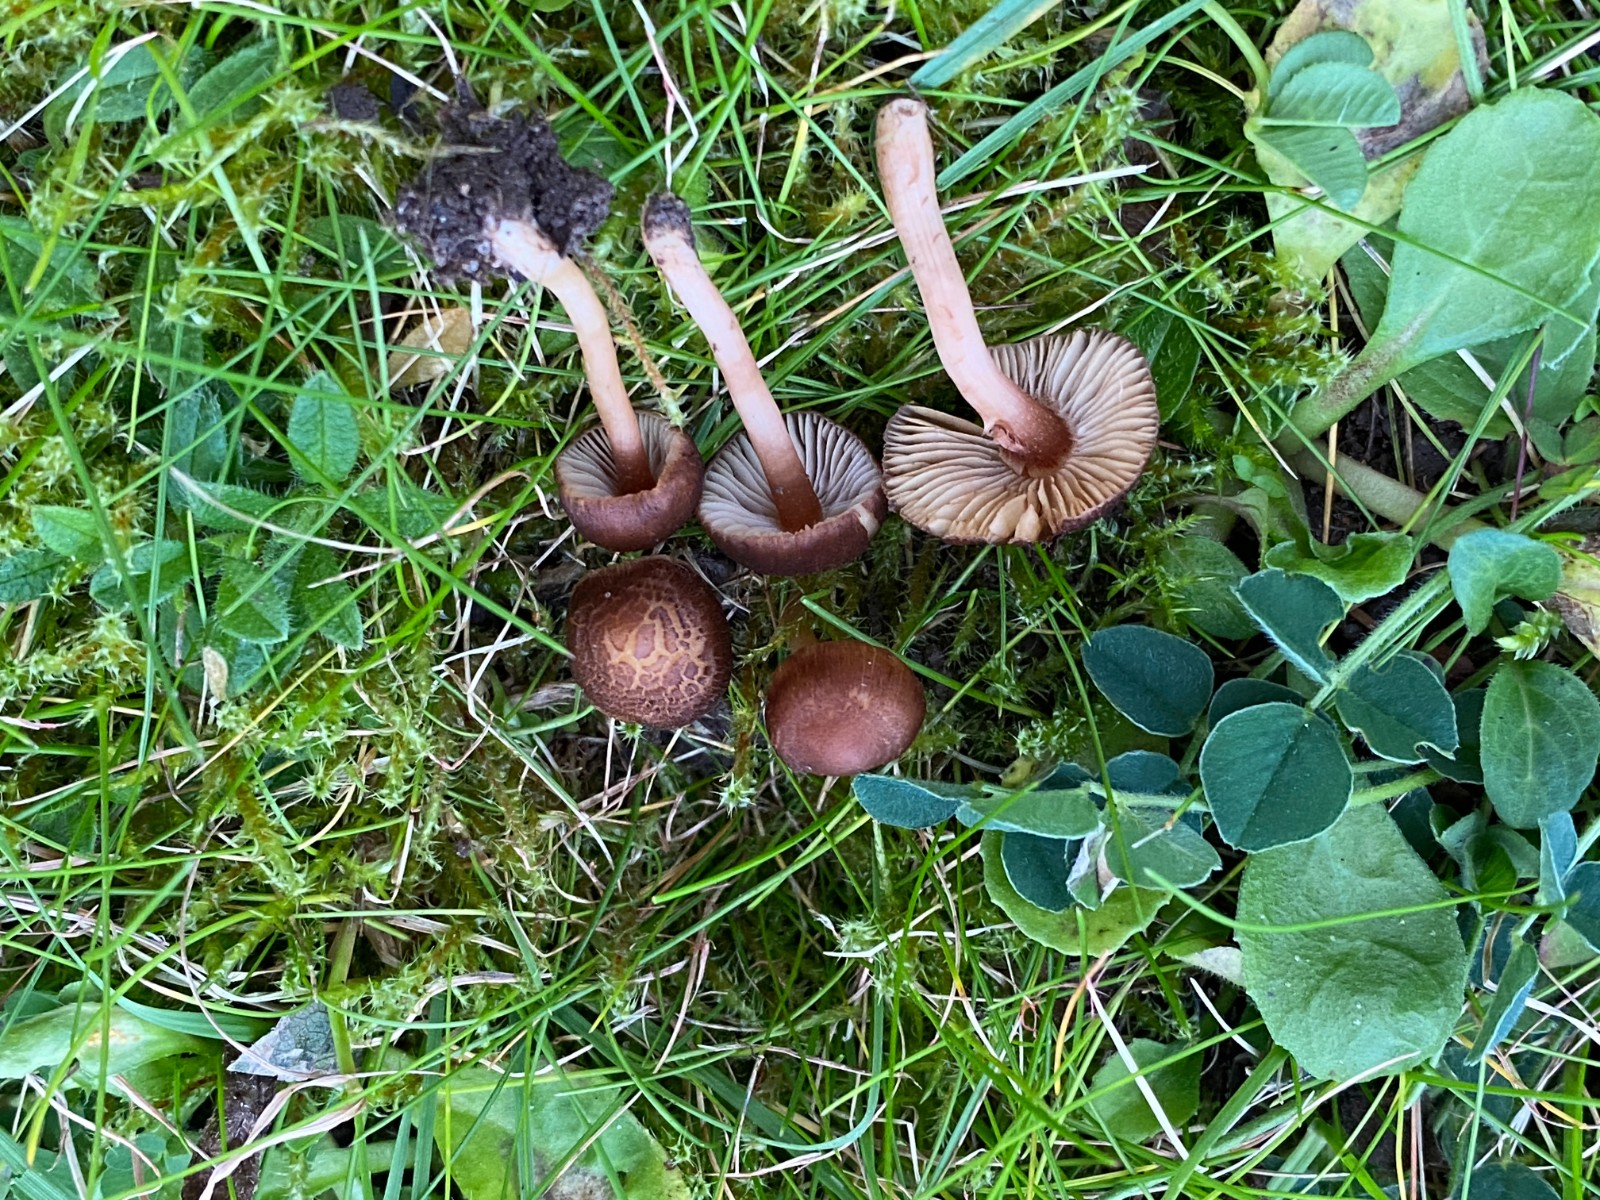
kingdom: Fungi
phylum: Basidiomycota
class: Agaricomycetes
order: Agaricales
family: Inocybaceae
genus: Inocybe
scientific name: Inocybe
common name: trævlhat
